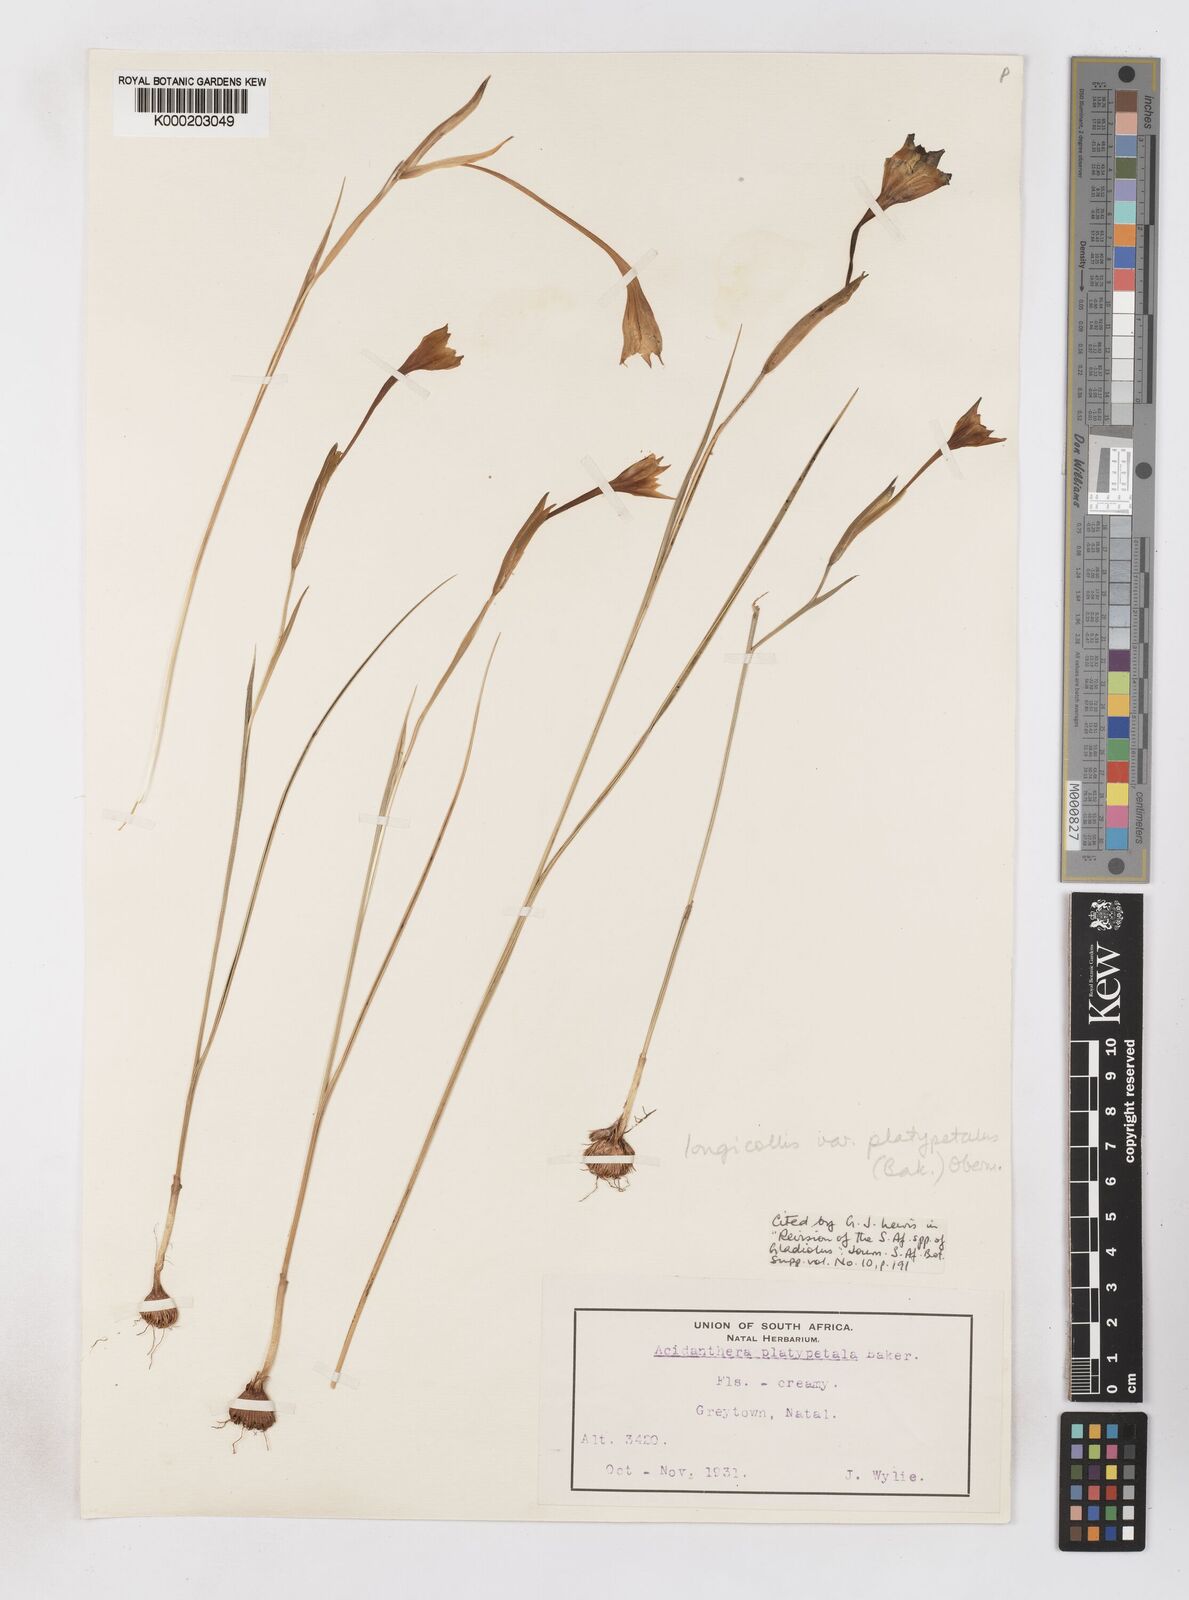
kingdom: Plantae
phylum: Tracheophyta
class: Liliopsida
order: Asparagales
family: Iridaceae
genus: Gladiolus
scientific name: Gladiolus longicollis
